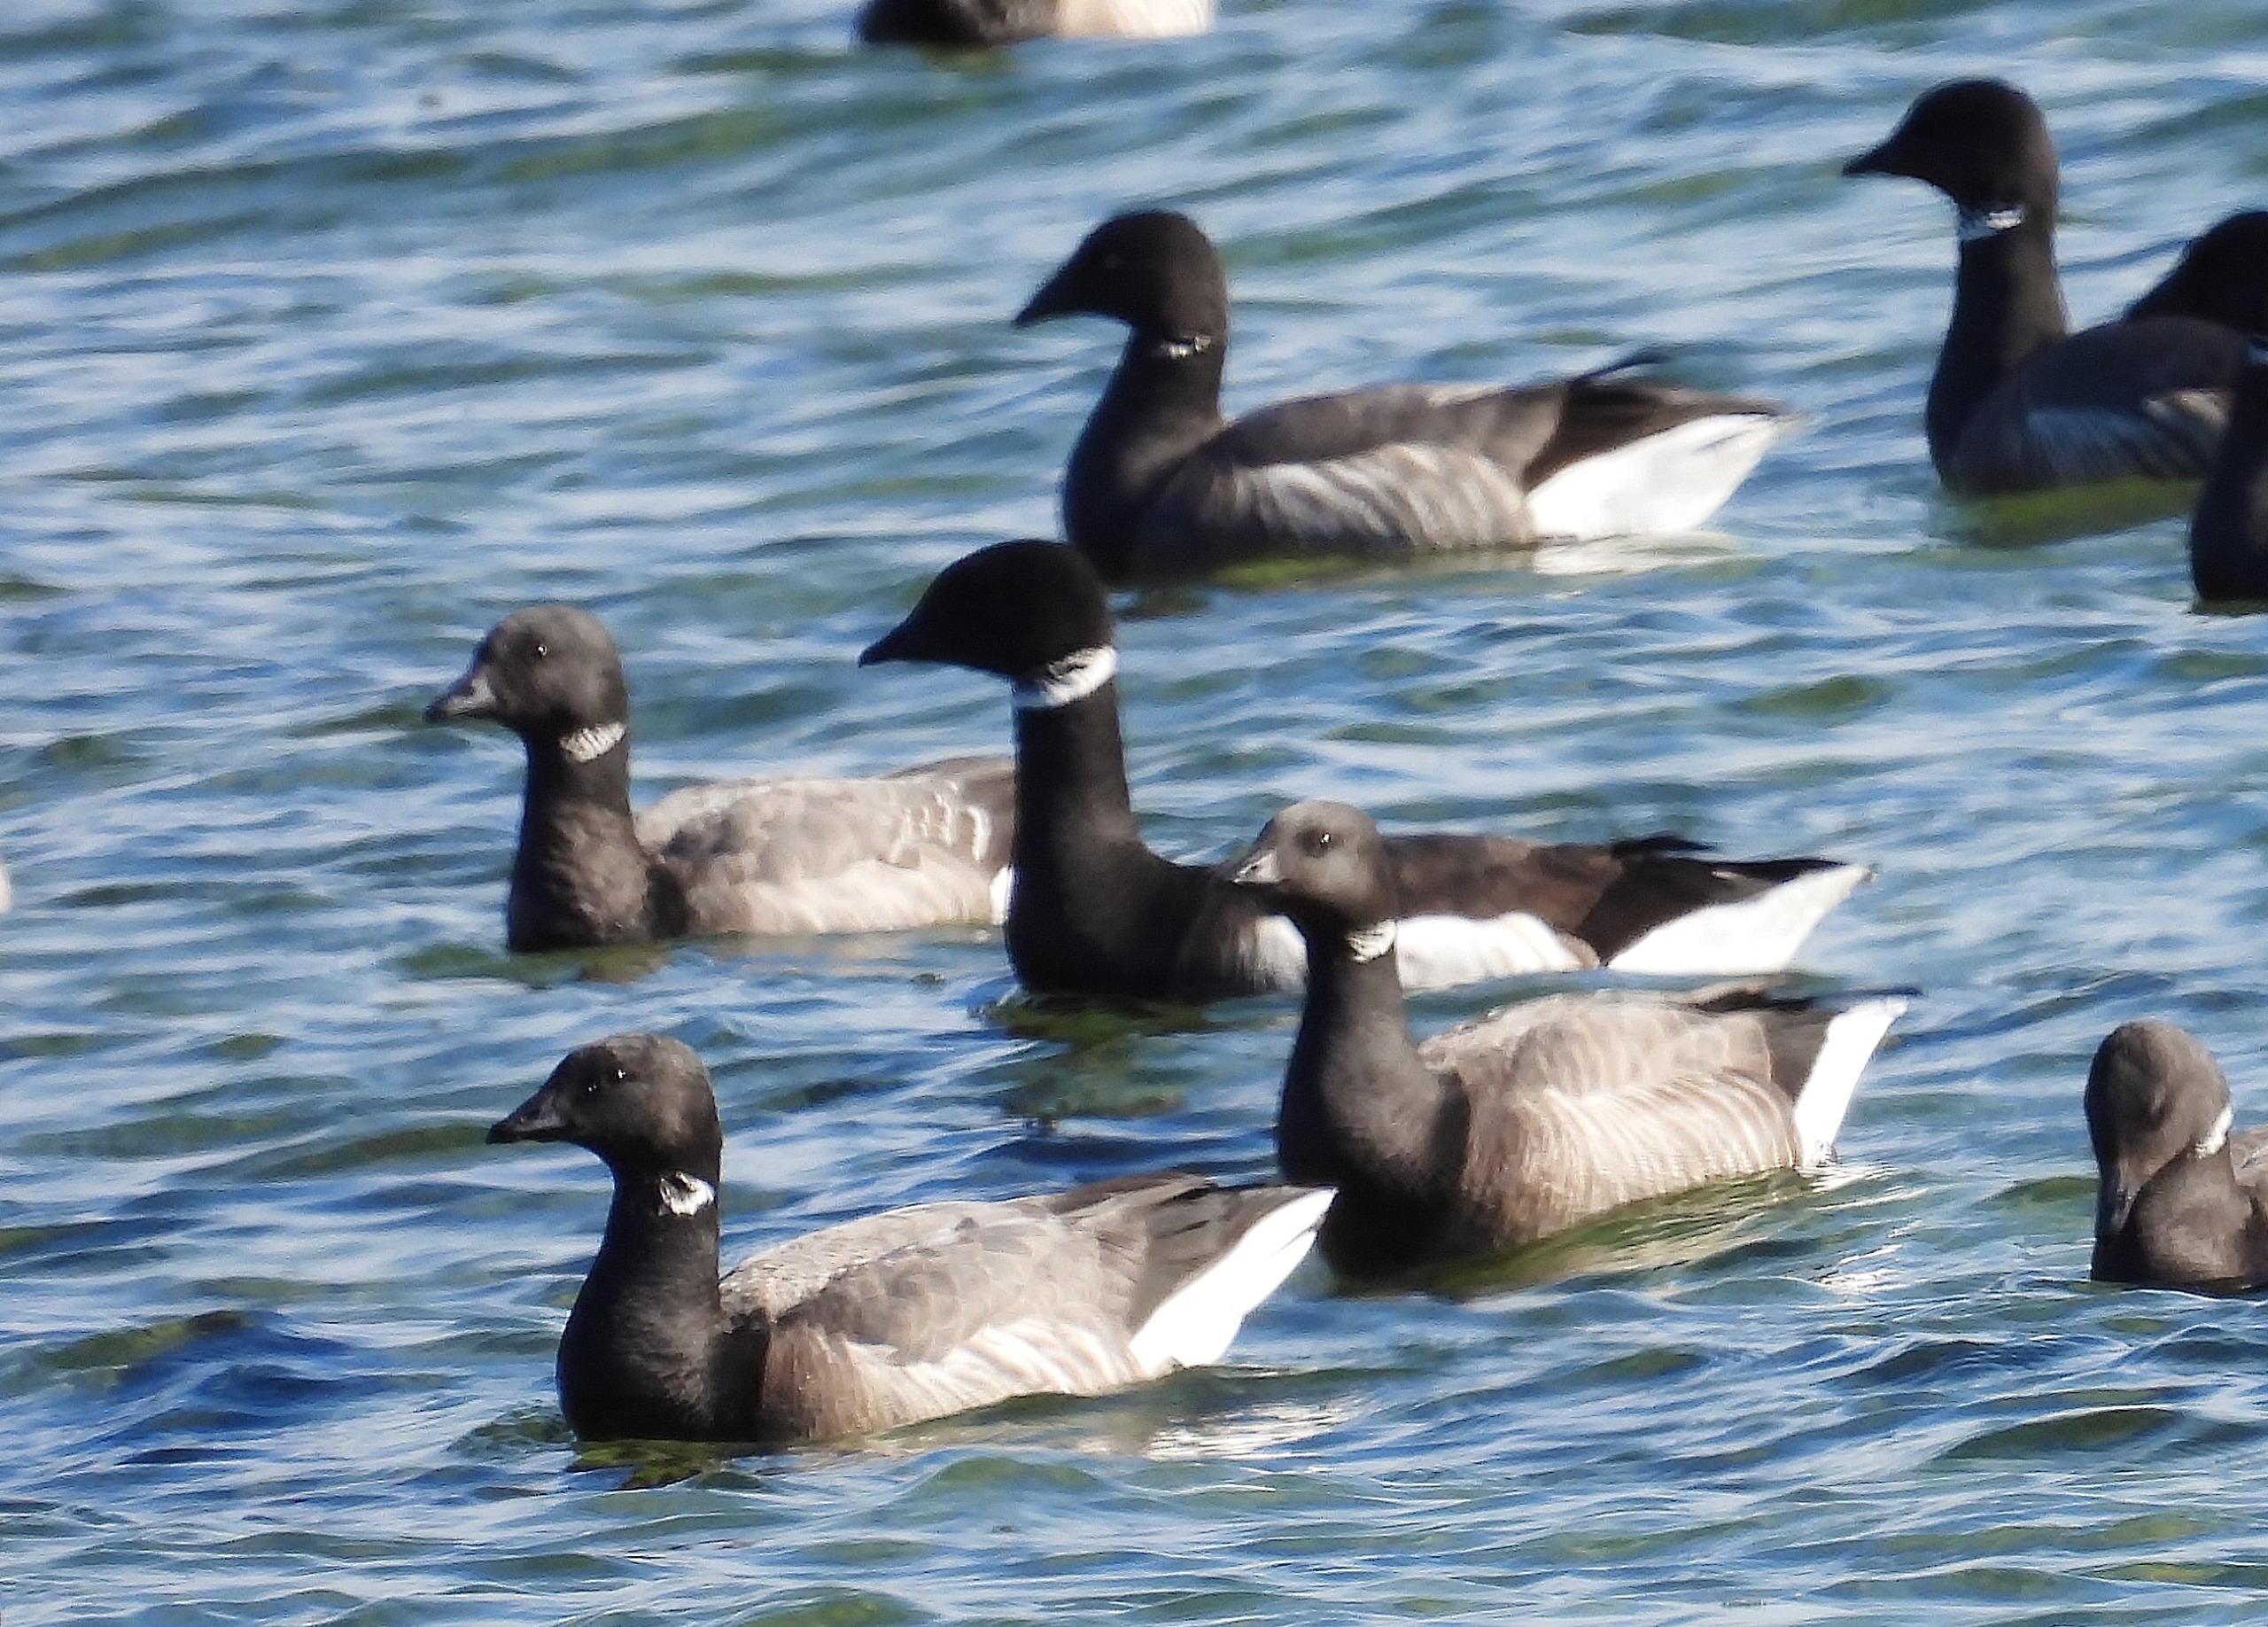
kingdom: Animalia
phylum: Chordata
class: Aves
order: Anseriformes
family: Anatidae
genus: Branta
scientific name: Branta bernicla
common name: Sortbuget knortegås
